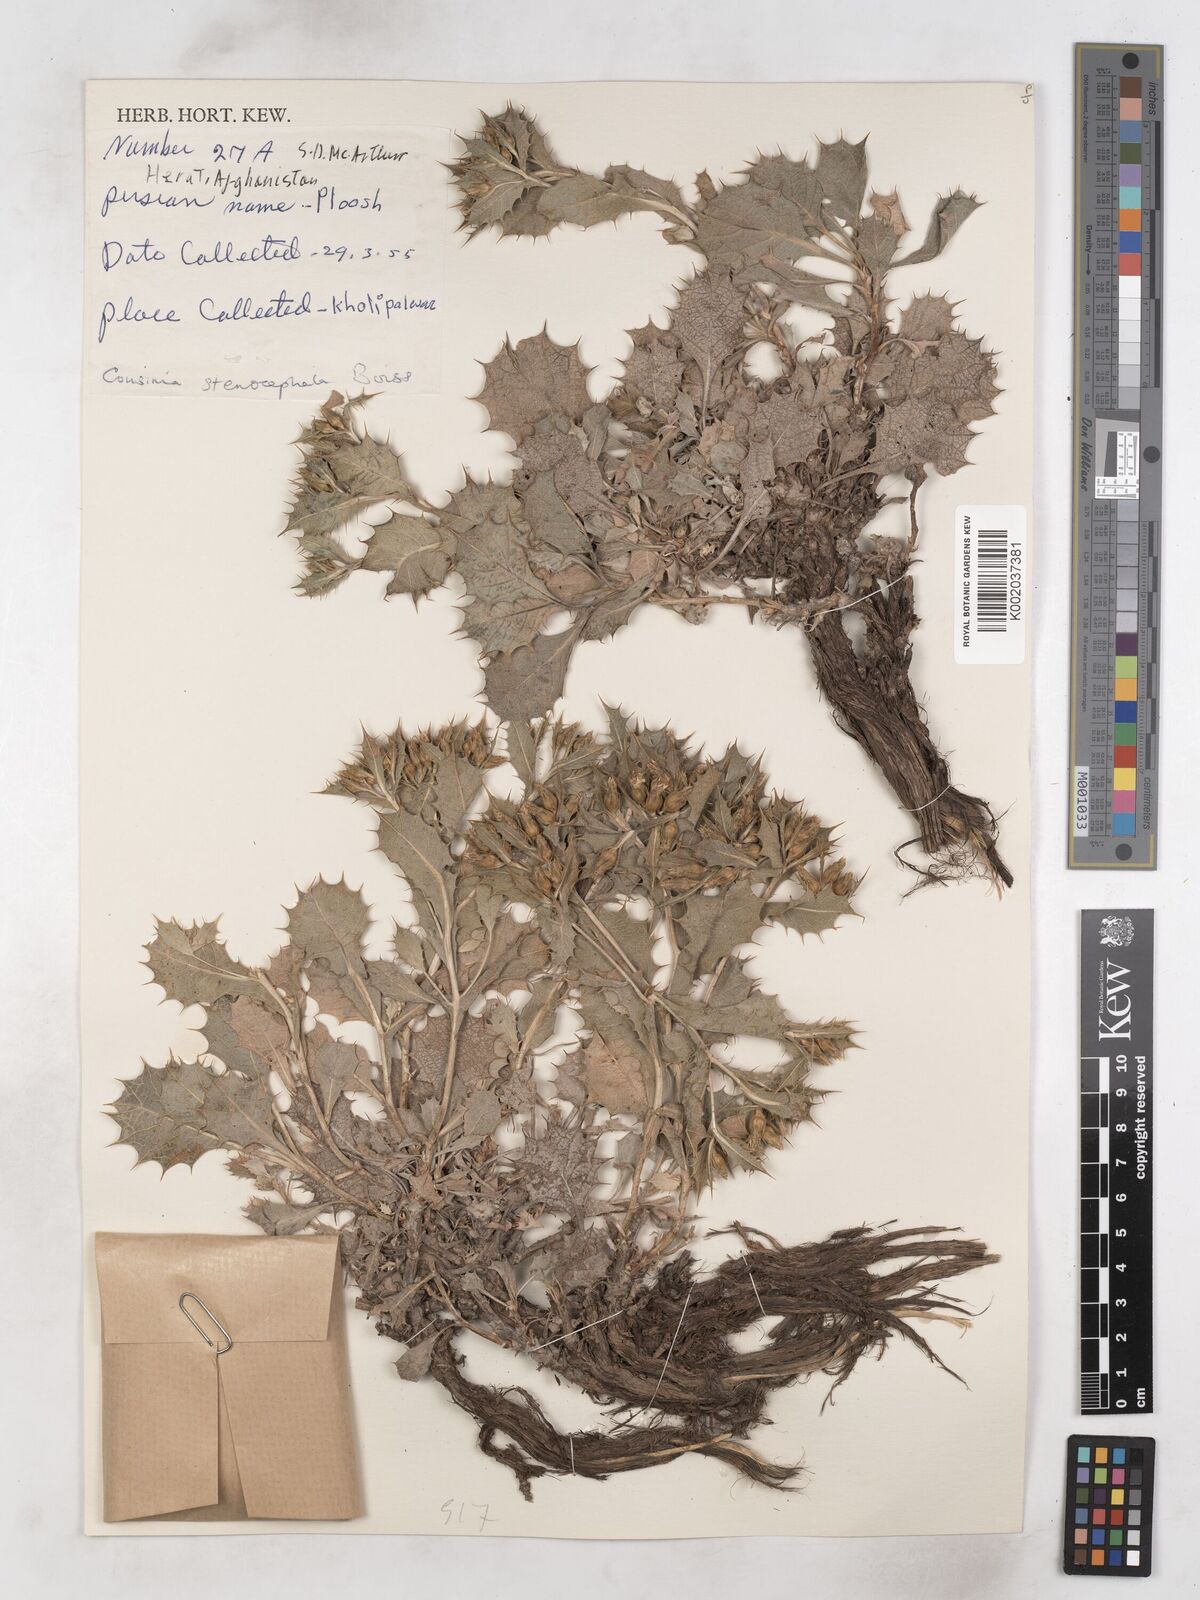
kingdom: Plantae
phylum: Tracheophyta
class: Magnoliopsida
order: Asterales
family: Asteraceae
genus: Cousinia
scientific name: Cousinia stenocephala
